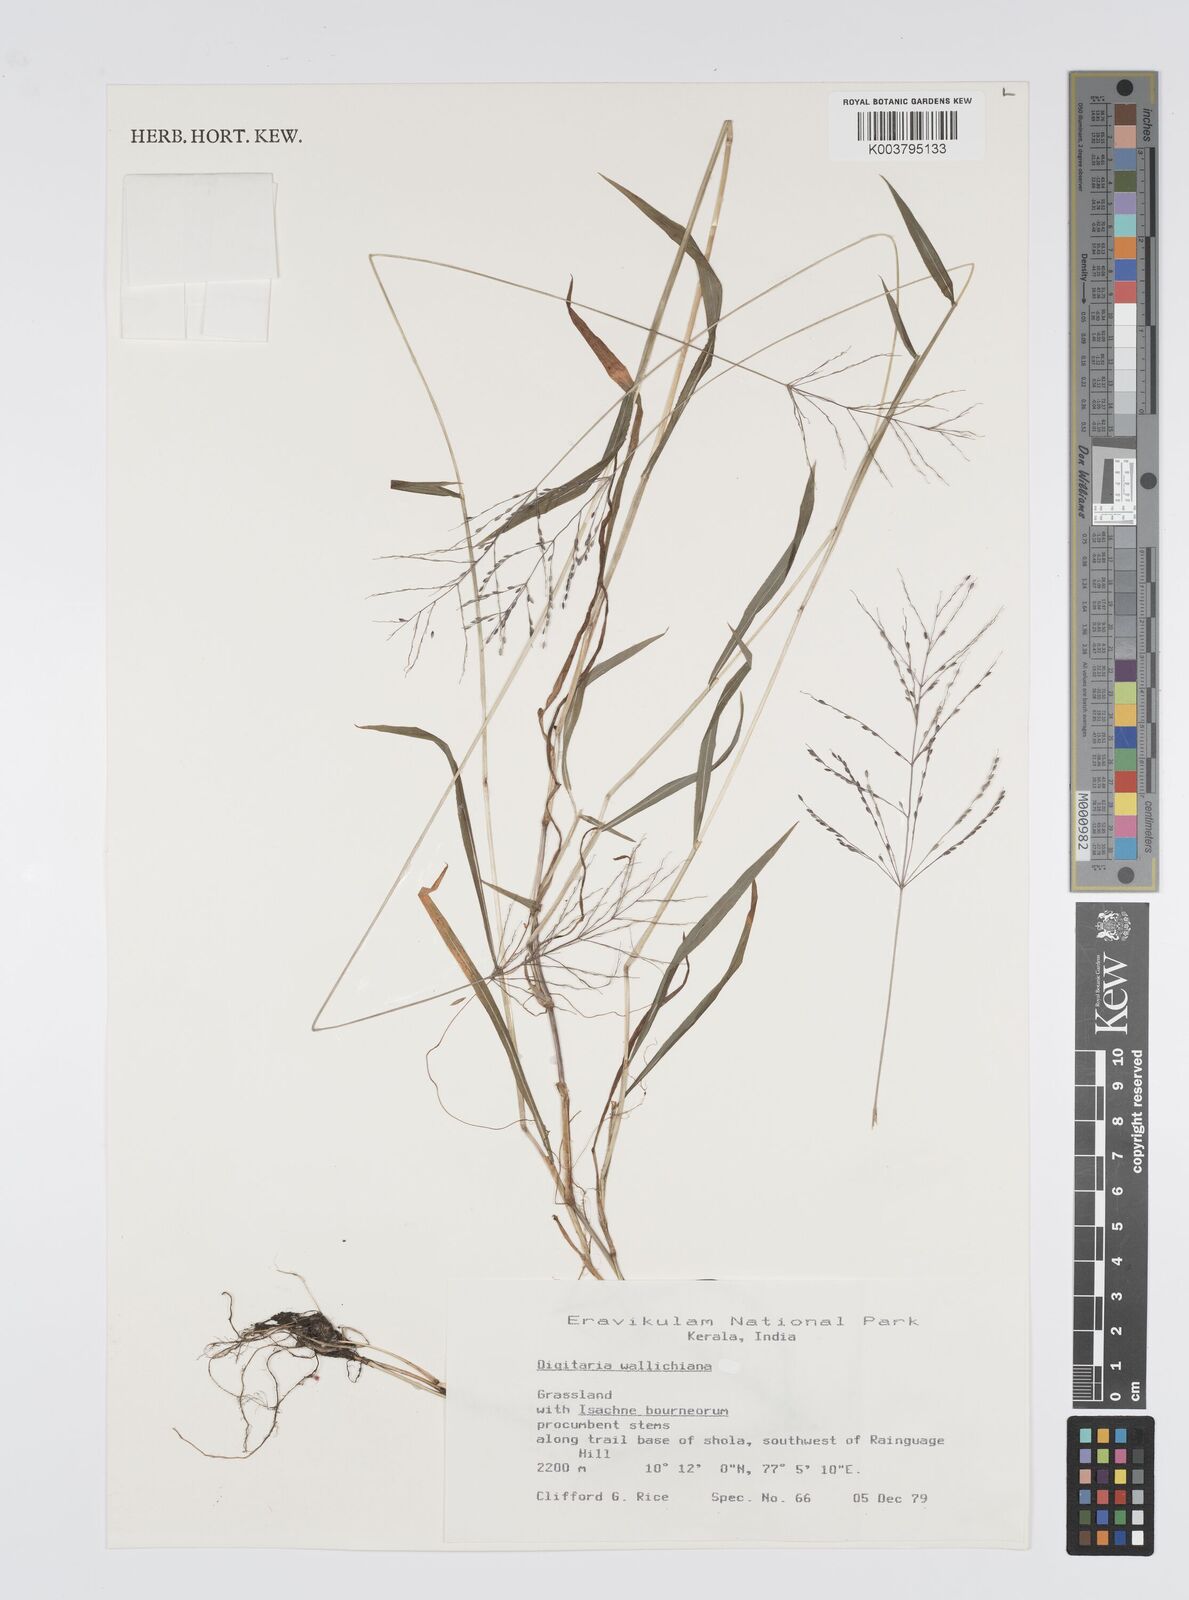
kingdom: Plantae
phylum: Tracheophyta
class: Liliopsida
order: Poales
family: Poaceae
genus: Digitaria
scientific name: Digitaria wallichiana
